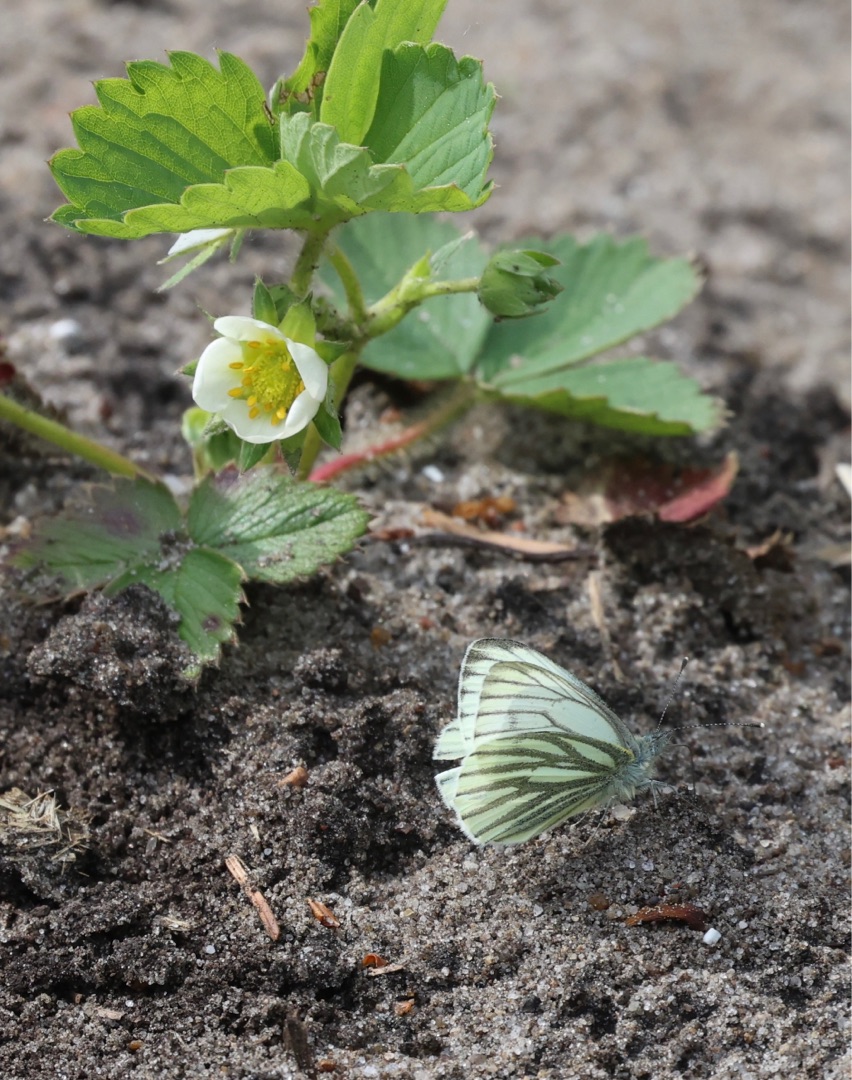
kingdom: Animalia
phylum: Arthropoda
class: Insecta
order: Lepidoptera
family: Pieridae
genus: Pieris
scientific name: Pieris napi
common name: Grønåret kålsommerfugl
